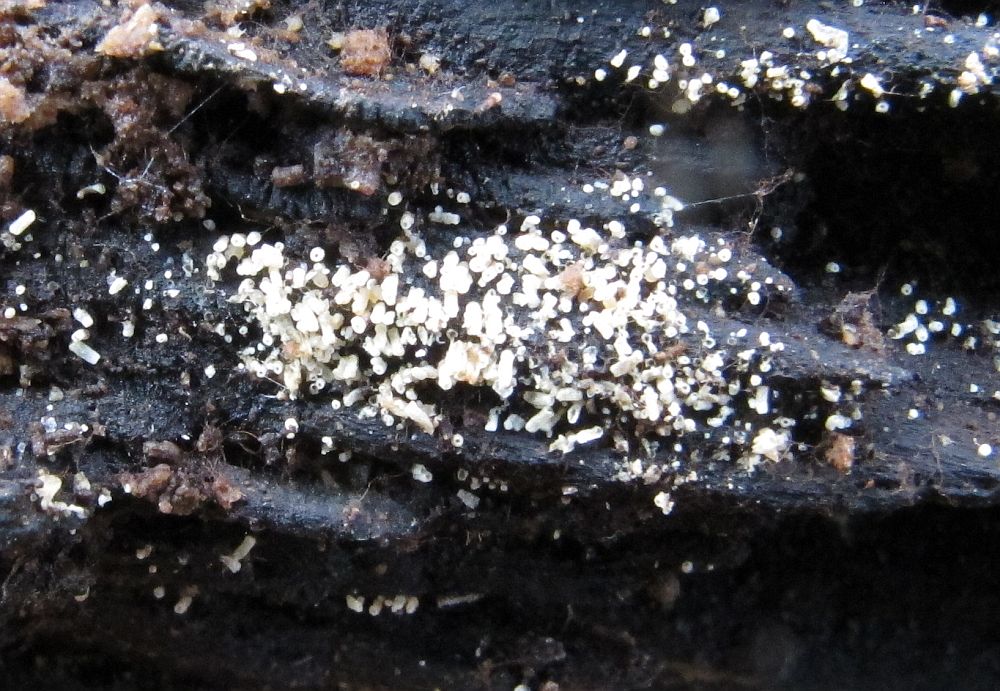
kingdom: Fungi
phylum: Basidiomycota
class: Agaricomycetes
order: Agaricales
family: Marasmiaceae
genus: Henningsomyces
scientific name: Henningsomyces candidus
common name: glat hængerør
